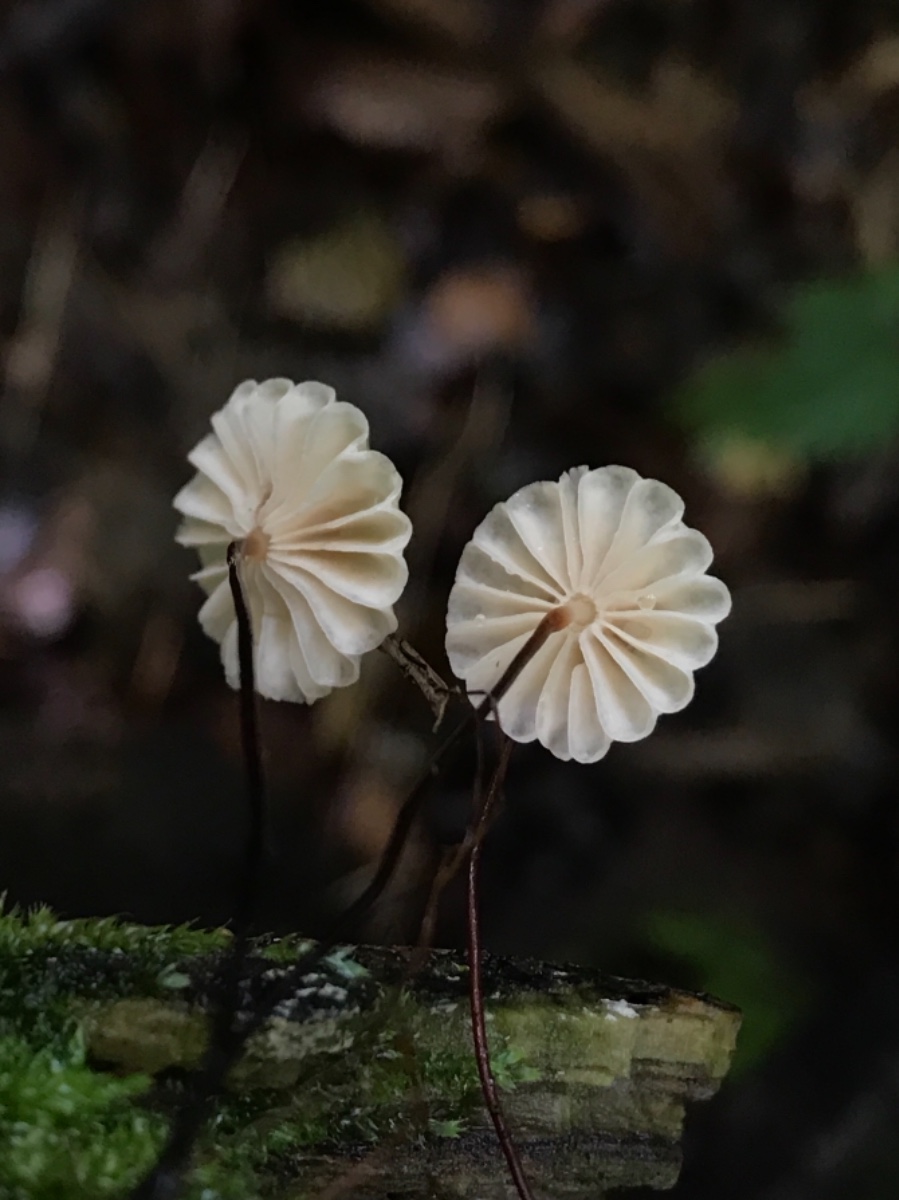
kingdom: Fungi
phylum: Basidiomycota
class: Agaricomycetes
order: Agaricales
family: Marasmiaceae
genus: Marasmius
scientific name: Marasmius rotula
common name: hjul-bruskhat
